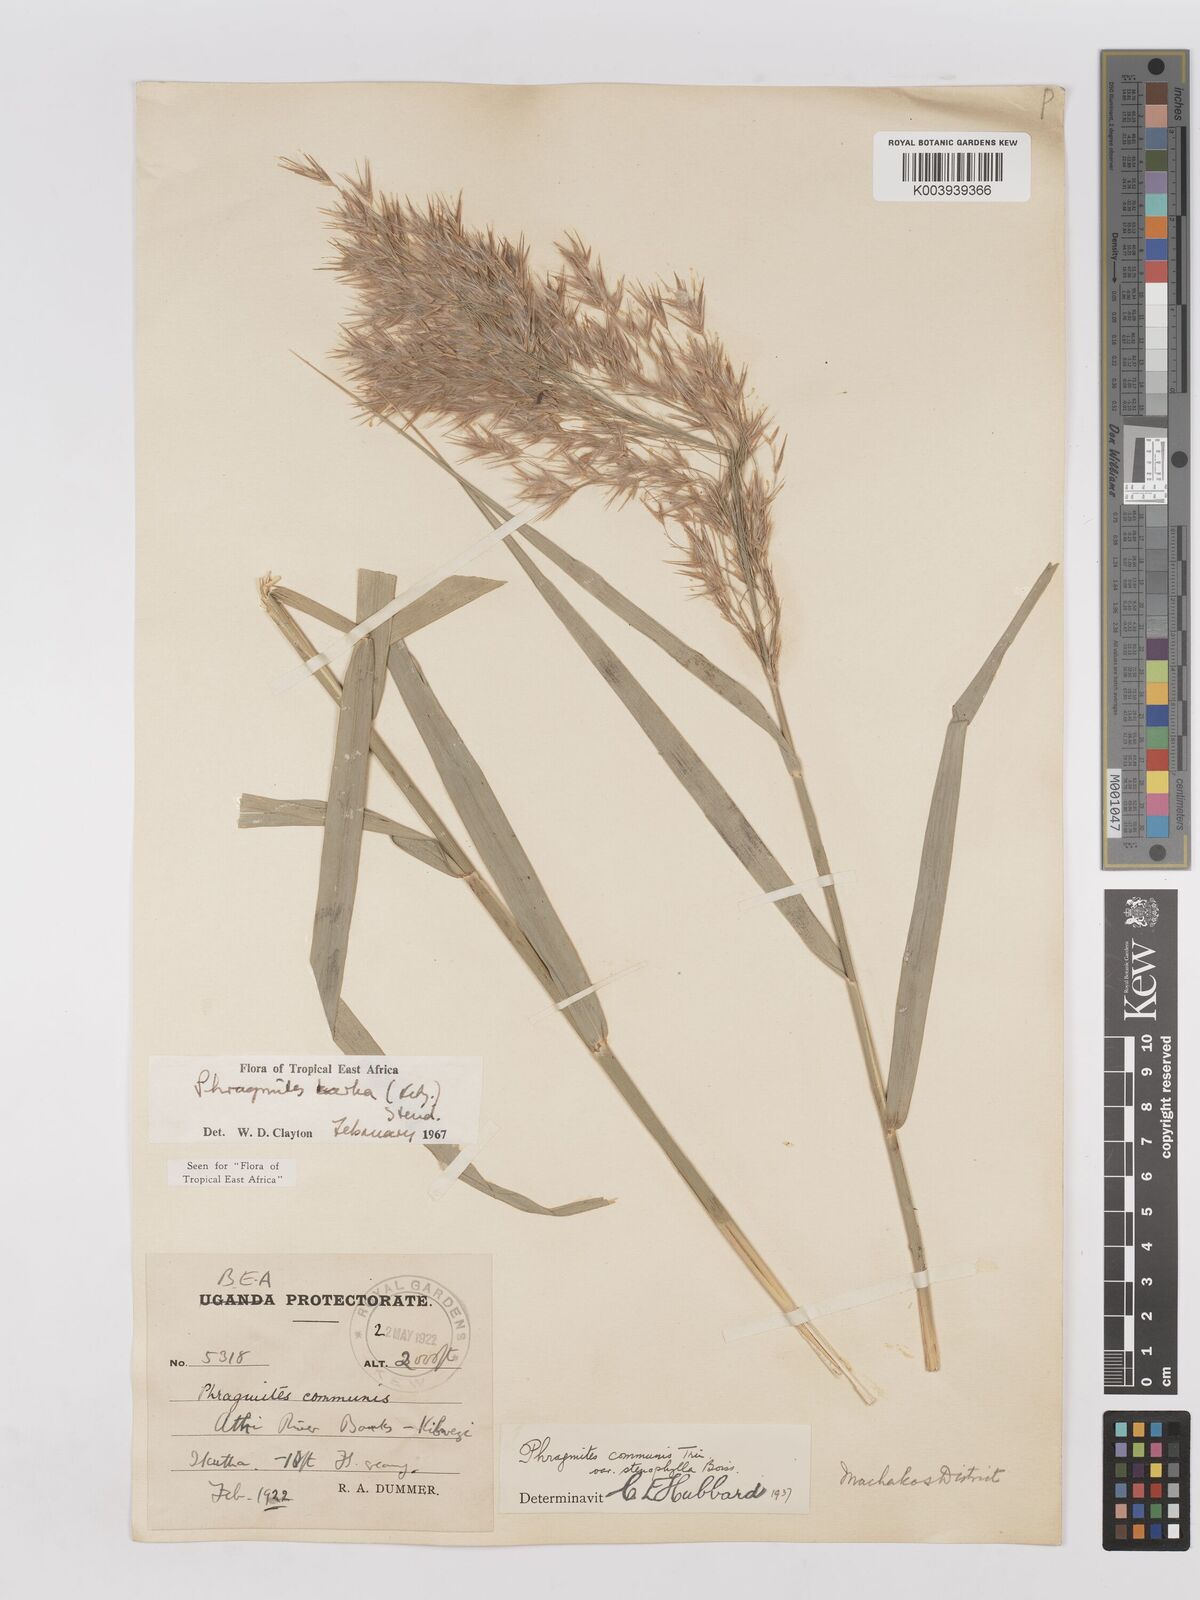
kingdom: Plantae
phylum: Tracheophyta
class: Liliopsida
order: Poales
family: Poaceae
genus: Phragmites
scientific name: Phragmites karka
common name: Tropical reed
